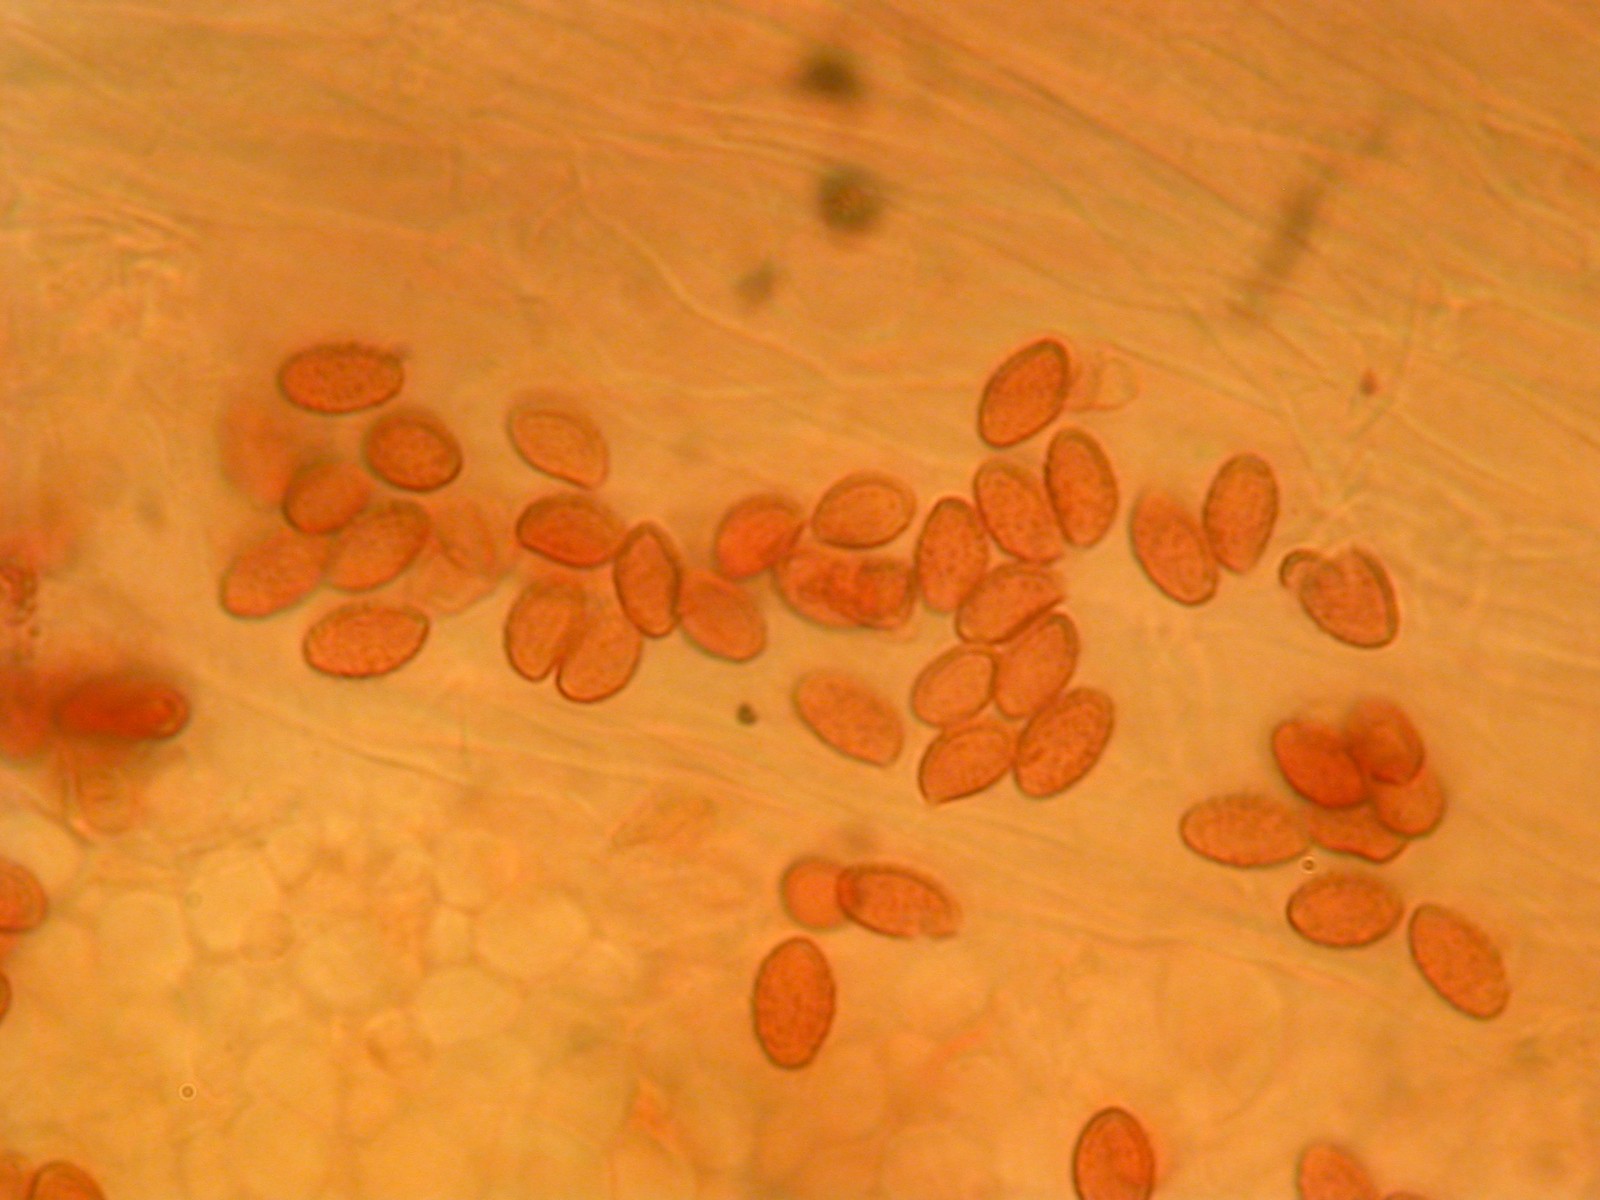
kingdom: Fungi
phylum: Basidiomycota
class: Agaricomycetes
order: Agaricales
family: Cortinariaceae
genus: Cortinarius
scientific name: Cortinarius famatus
